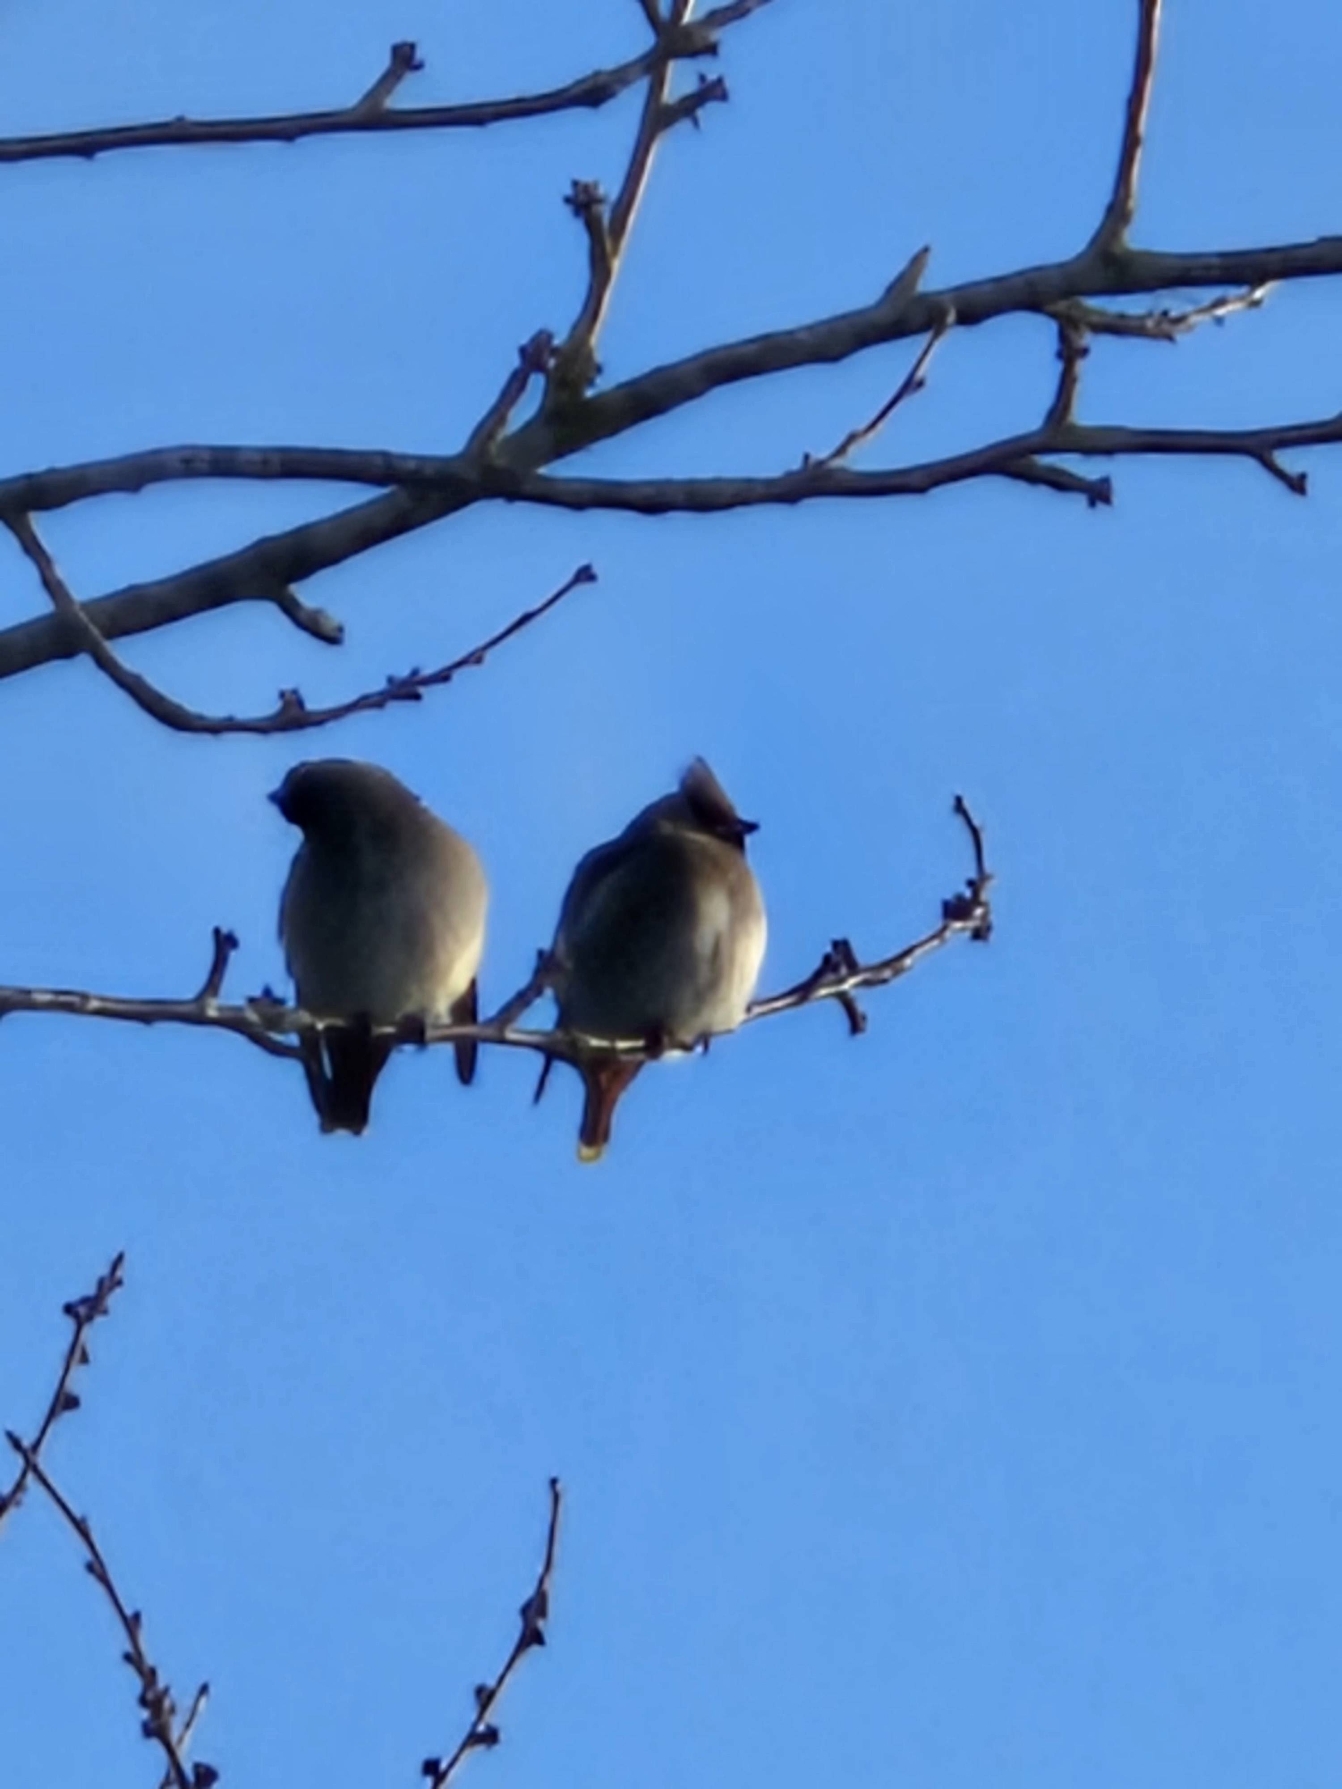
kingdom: Animalia
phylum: Chordata
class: Aves
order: Passeriformes
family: Bombycillidae
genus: Bombycilla
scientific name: Bombycilla garrulus
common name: Silkehale
